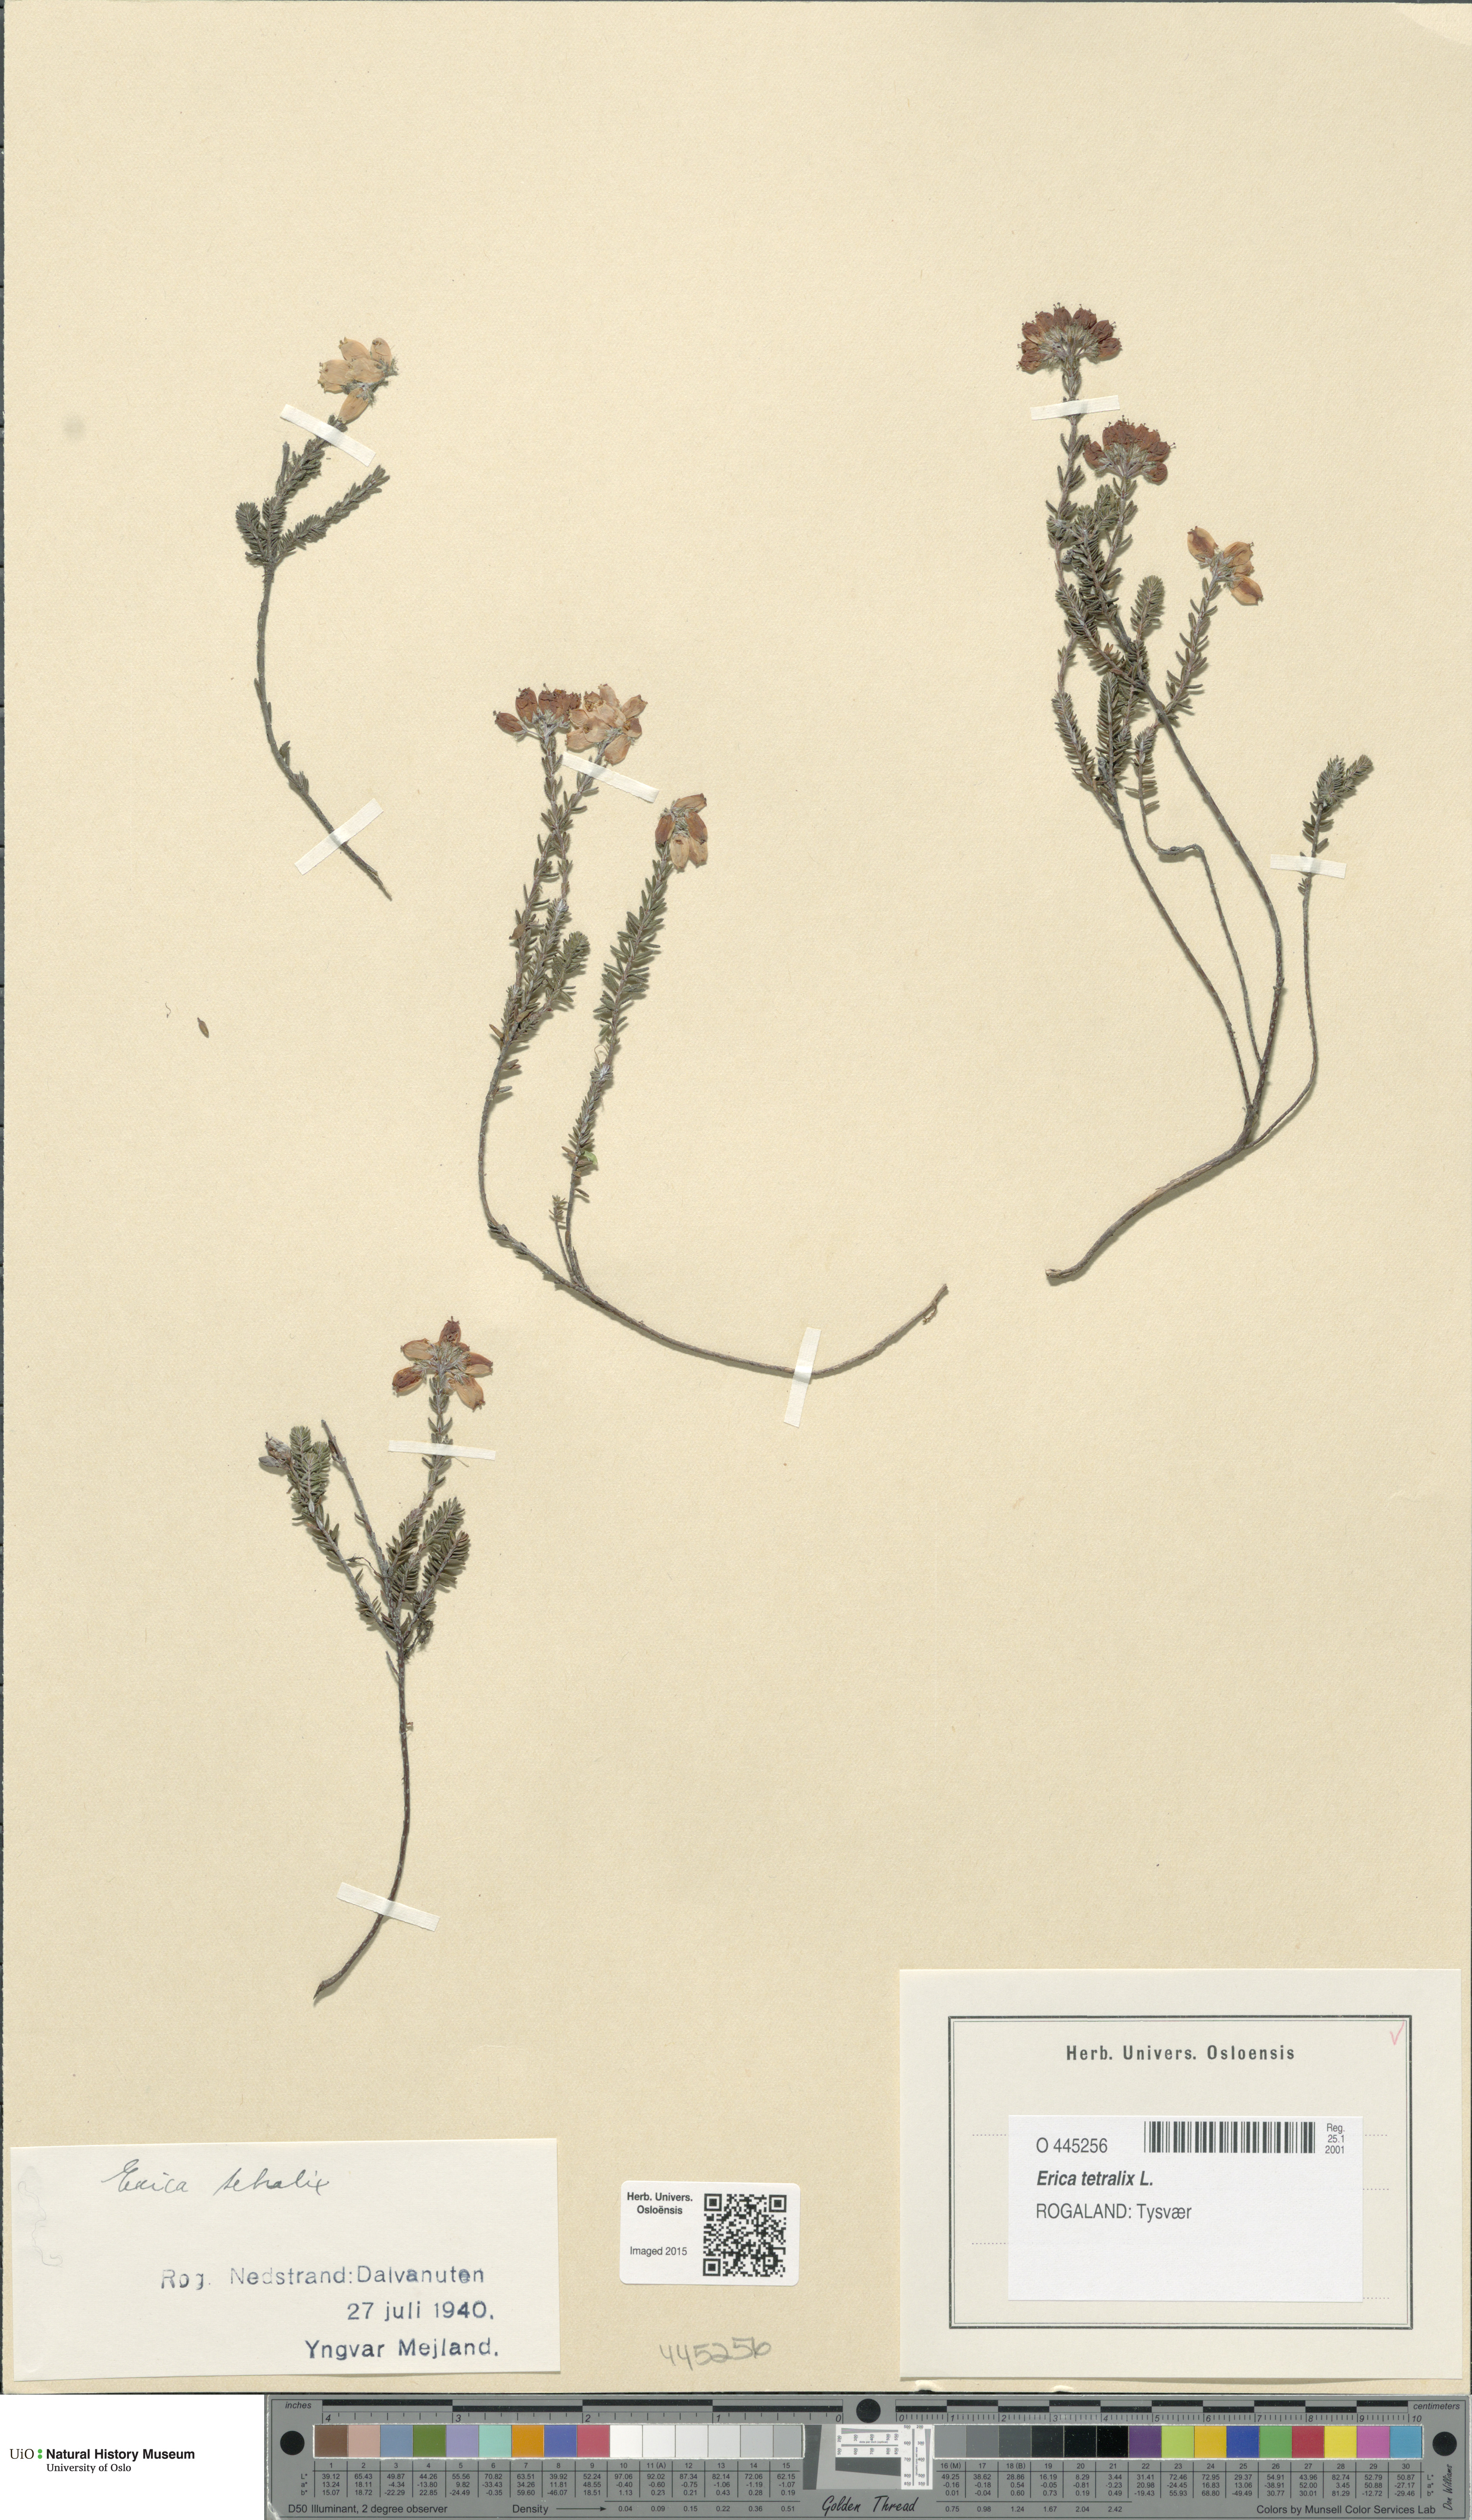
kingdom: Plantae
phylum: Tracheophyta
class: Magnoliopsida
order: Ericales
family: Ericaceae
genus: Erica
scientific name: Erica tetralix
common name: Cross-leaved heath
